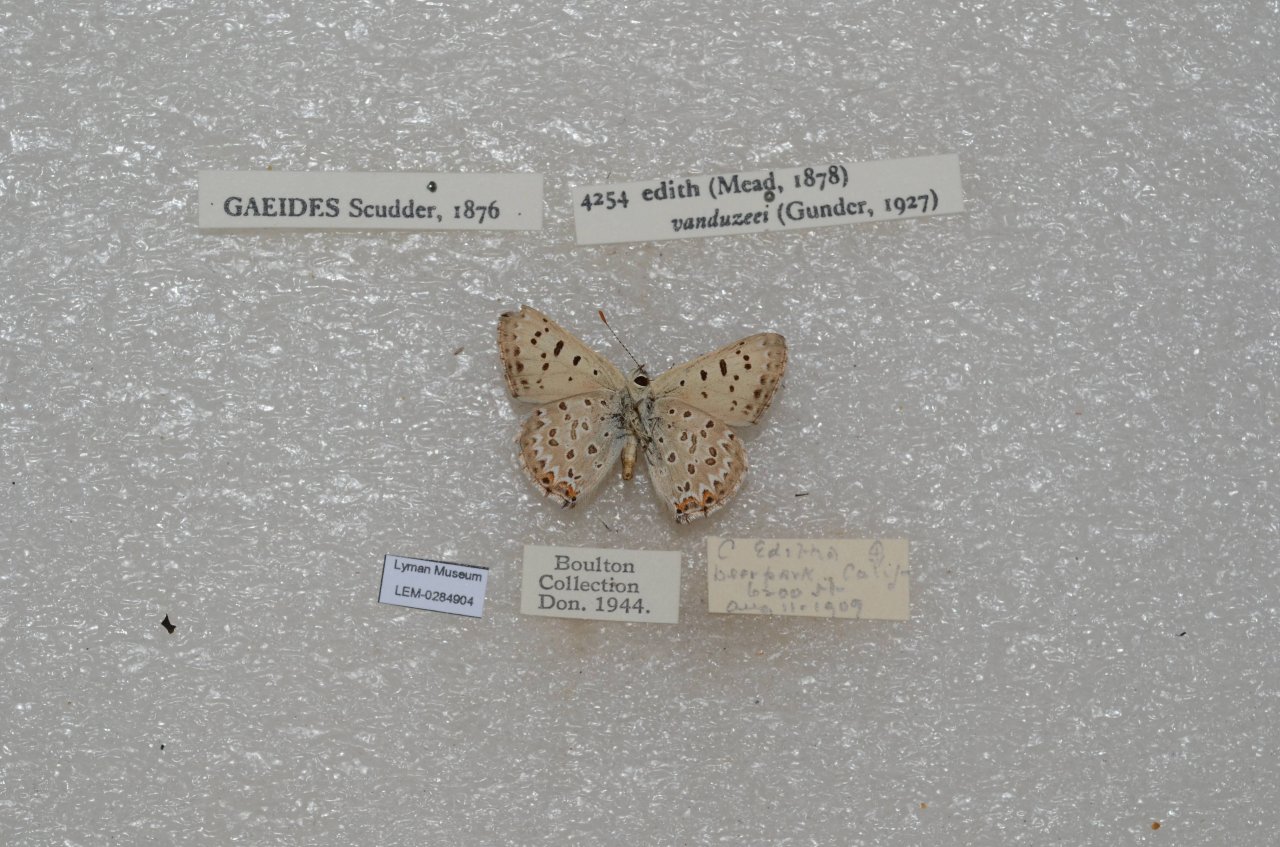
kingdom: Animalia
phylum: Arthropoda
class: Insecta
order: Lepidoptera
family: Nymphalidae
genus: Occidryas
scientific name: Occidryas editha
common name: Edith's Checkerspot
